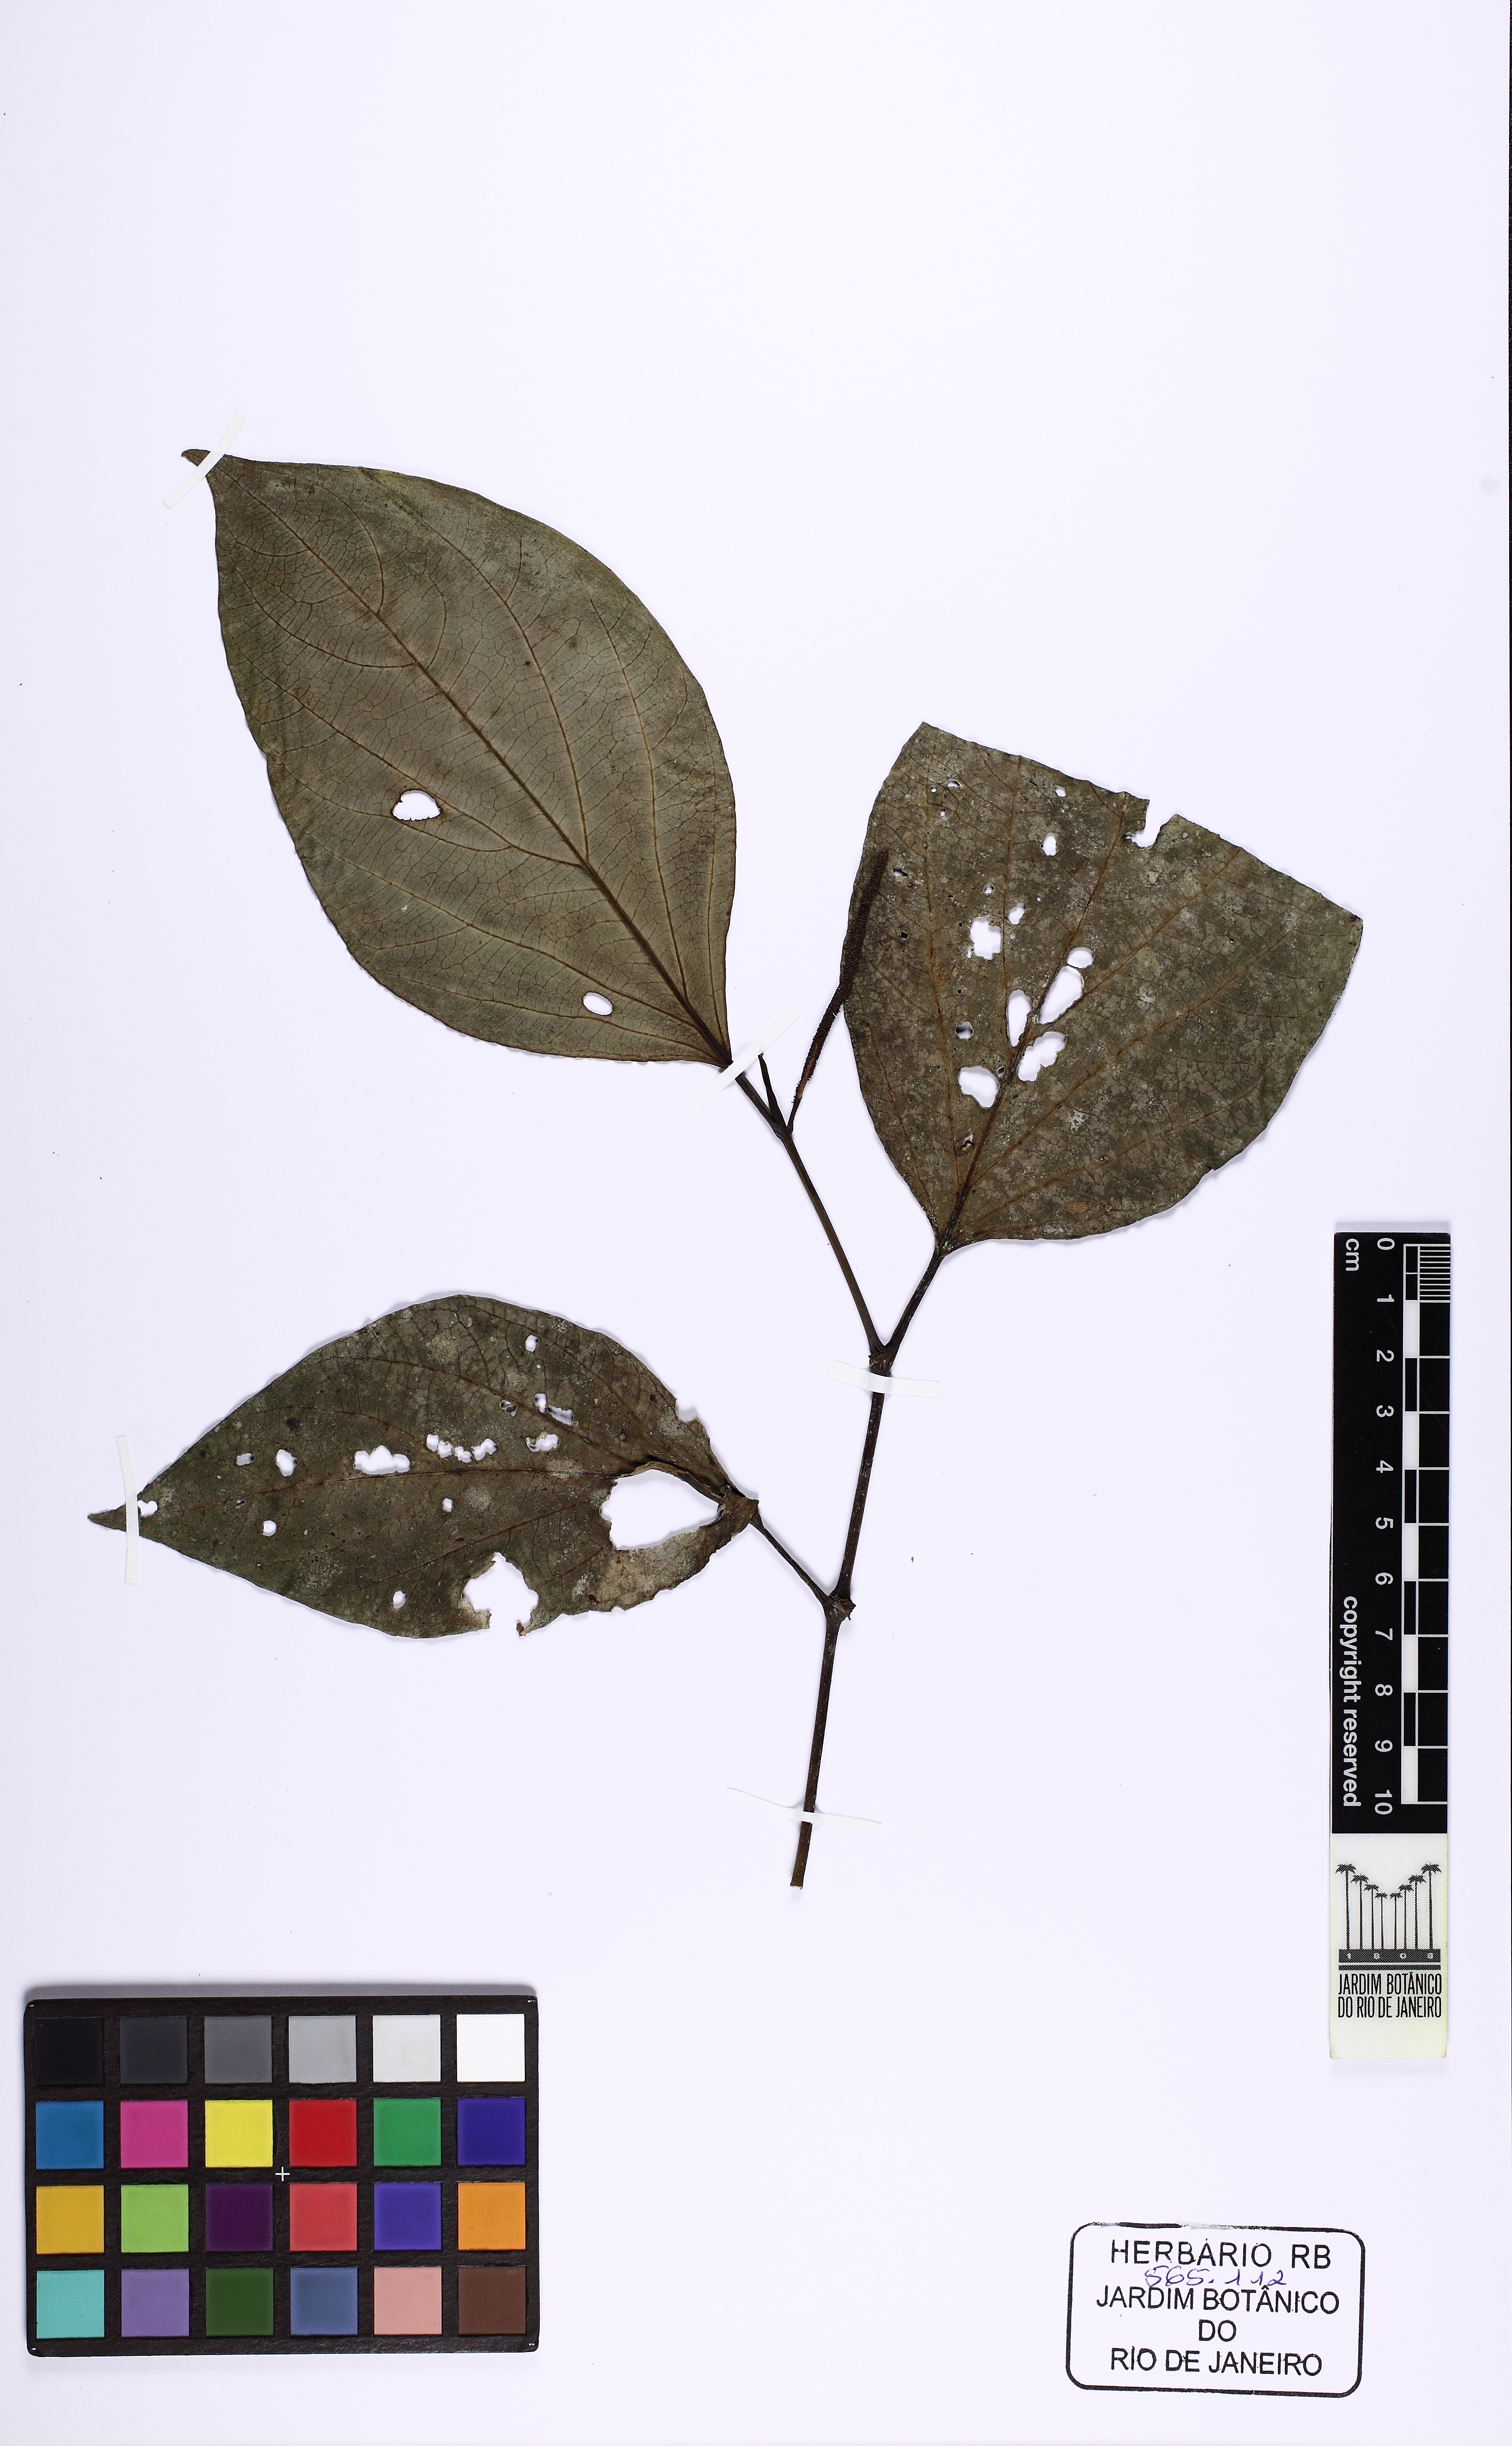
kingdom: Plantae
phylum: Tracheophyta
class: Magnoliopsida
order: Piperales
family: Piperaceae
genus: Piper
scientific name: Piper rivinoides
